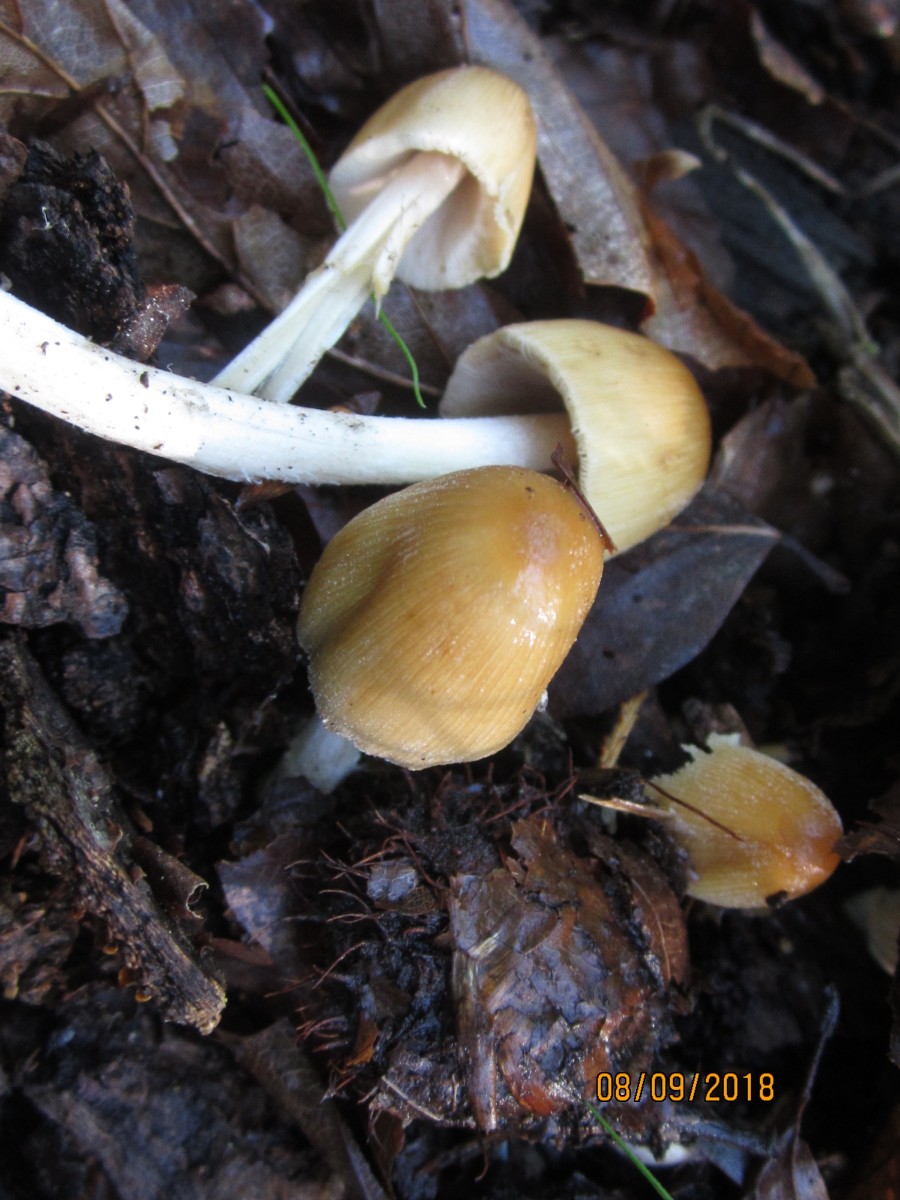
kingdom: Fungi
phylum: Basidiomycota
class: Agaricomycetes
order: Agaricales
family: Psathyrellaceae
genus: Coprinellus
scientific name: Coprinellus micaceus
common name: glimmer-blækhat
